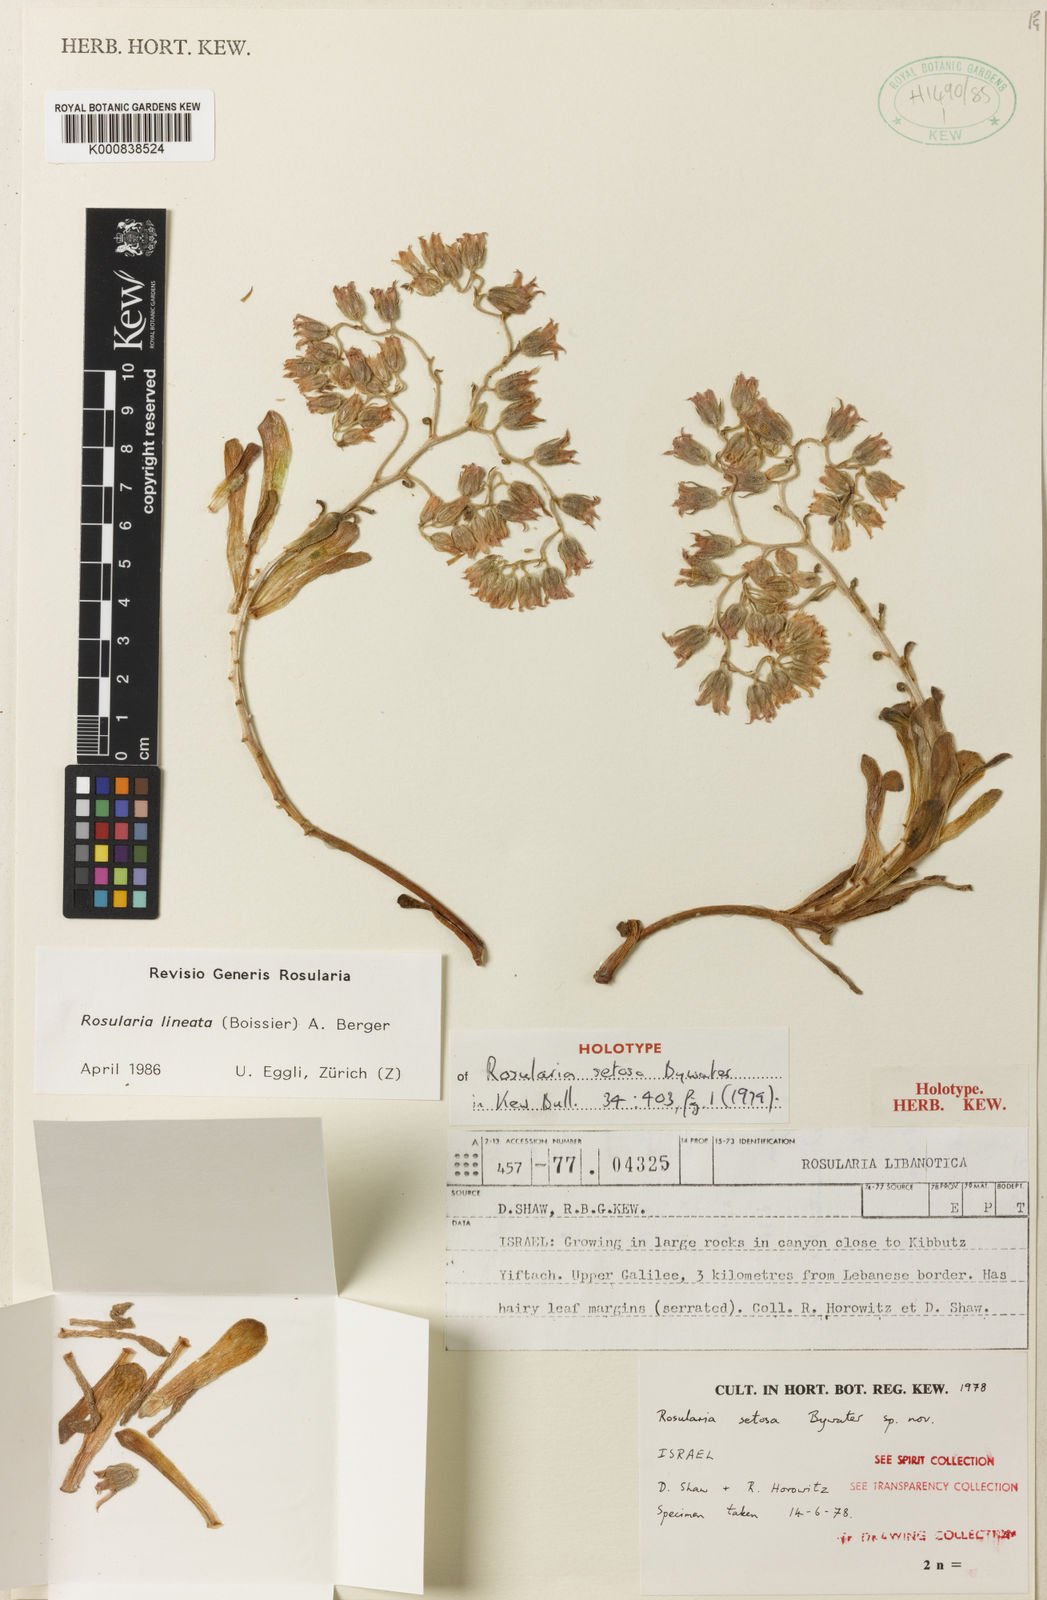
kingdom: Plantae
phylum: Tracheophyta
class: Magnoliopsida
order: Saxifragales
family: Crassulaceae
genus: Rosularia
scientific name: Rosularia lineata
